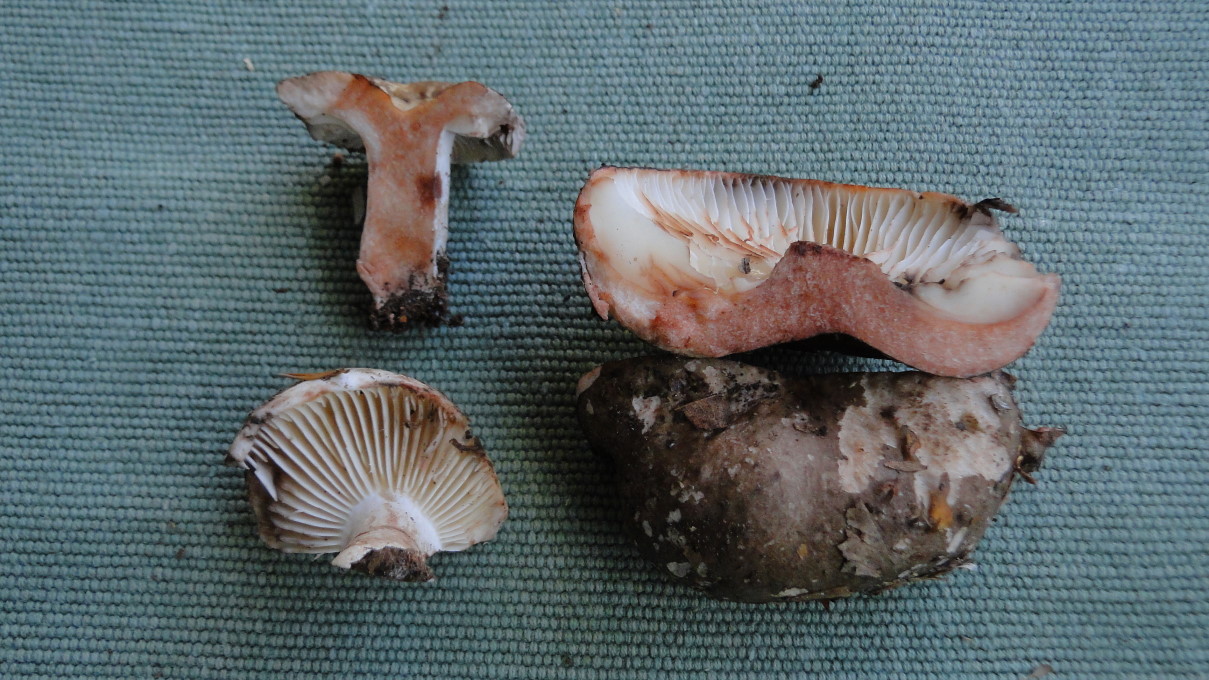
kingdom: Fungi
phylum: Basidiomycota
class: Agaricomycetes
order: Russulales
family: Russulaceae
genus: Russula
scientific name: Russula adusta
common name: sværtende skørhat
